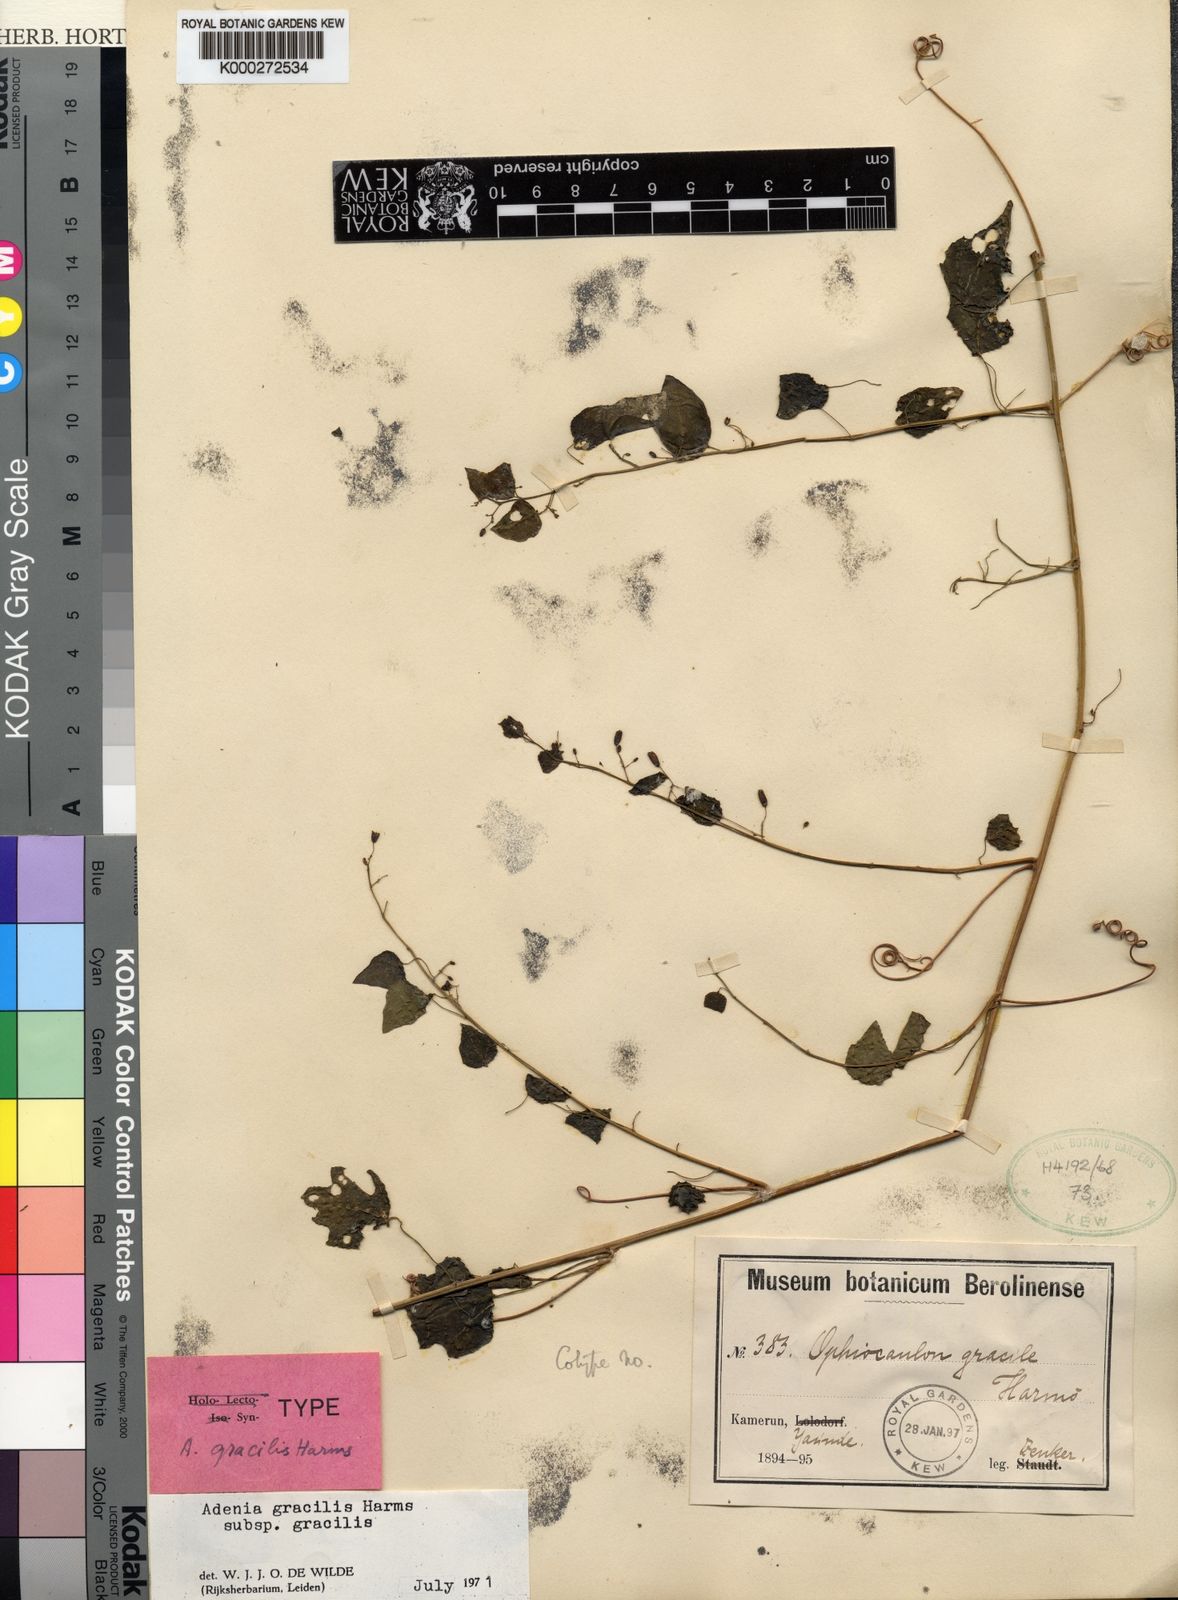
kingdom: Plantae
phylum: Tracheophyta
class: Magnoliopsida
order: Malpighiales
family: Passifloraceae
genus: Adenia
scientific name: Adenia cissampeloides
